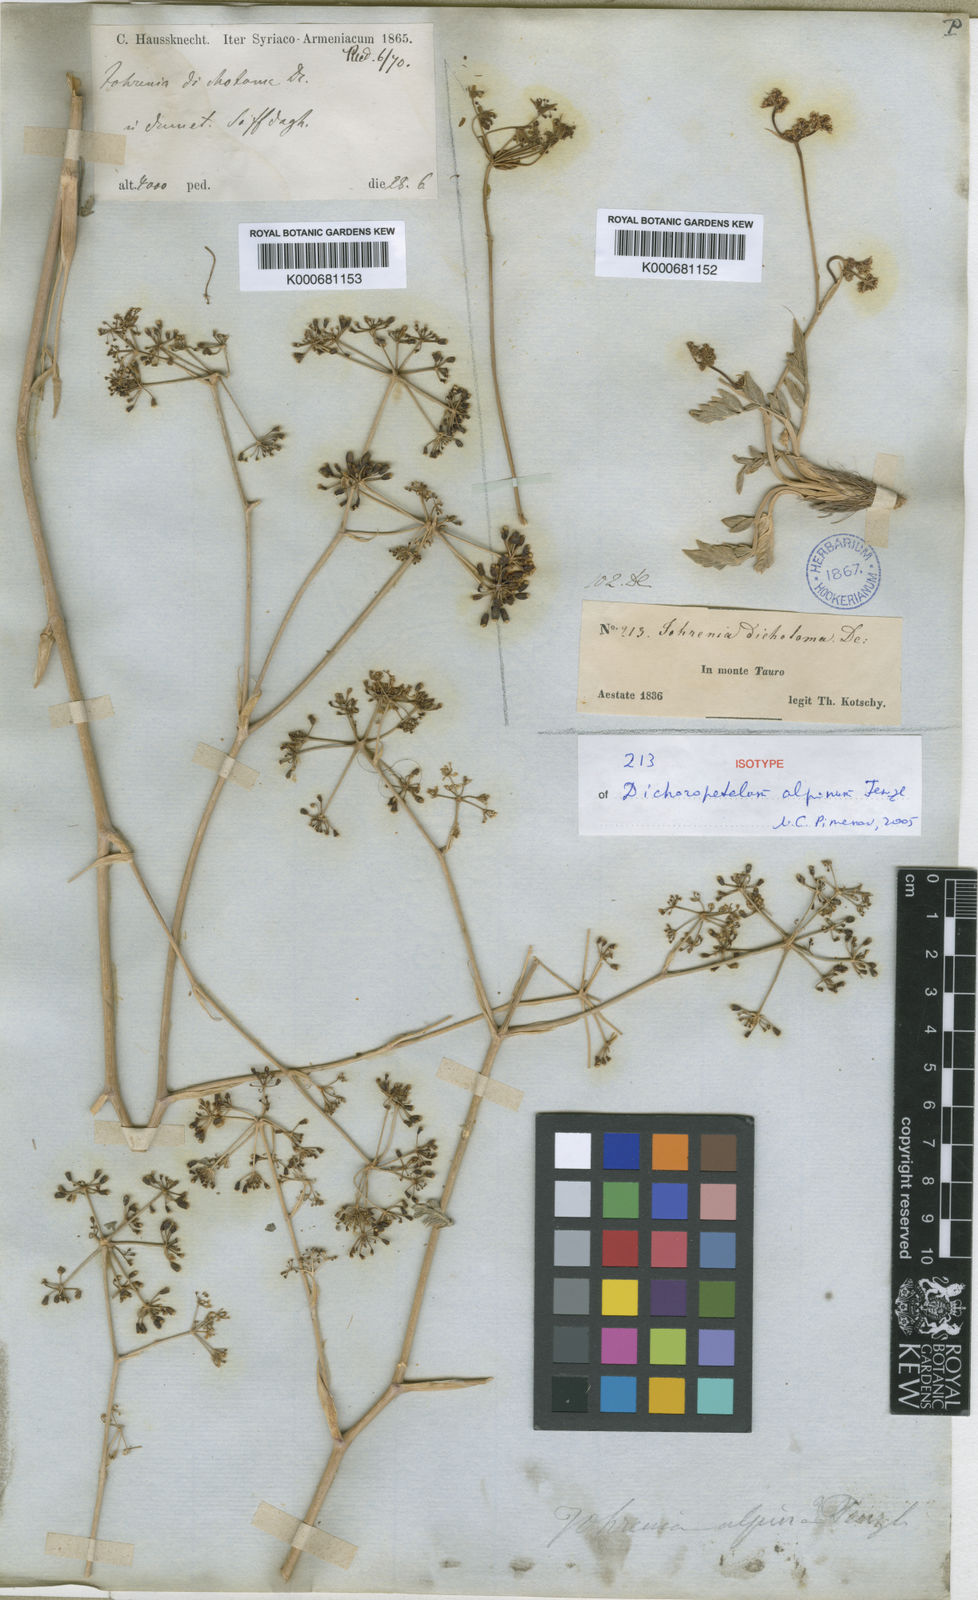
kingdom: Plantae
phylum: Tracheophyta
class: Magnoliopsida
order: Apiales
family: Apiaceae
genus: Dichoropetalum
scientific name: Dichoropetalum alpinum
